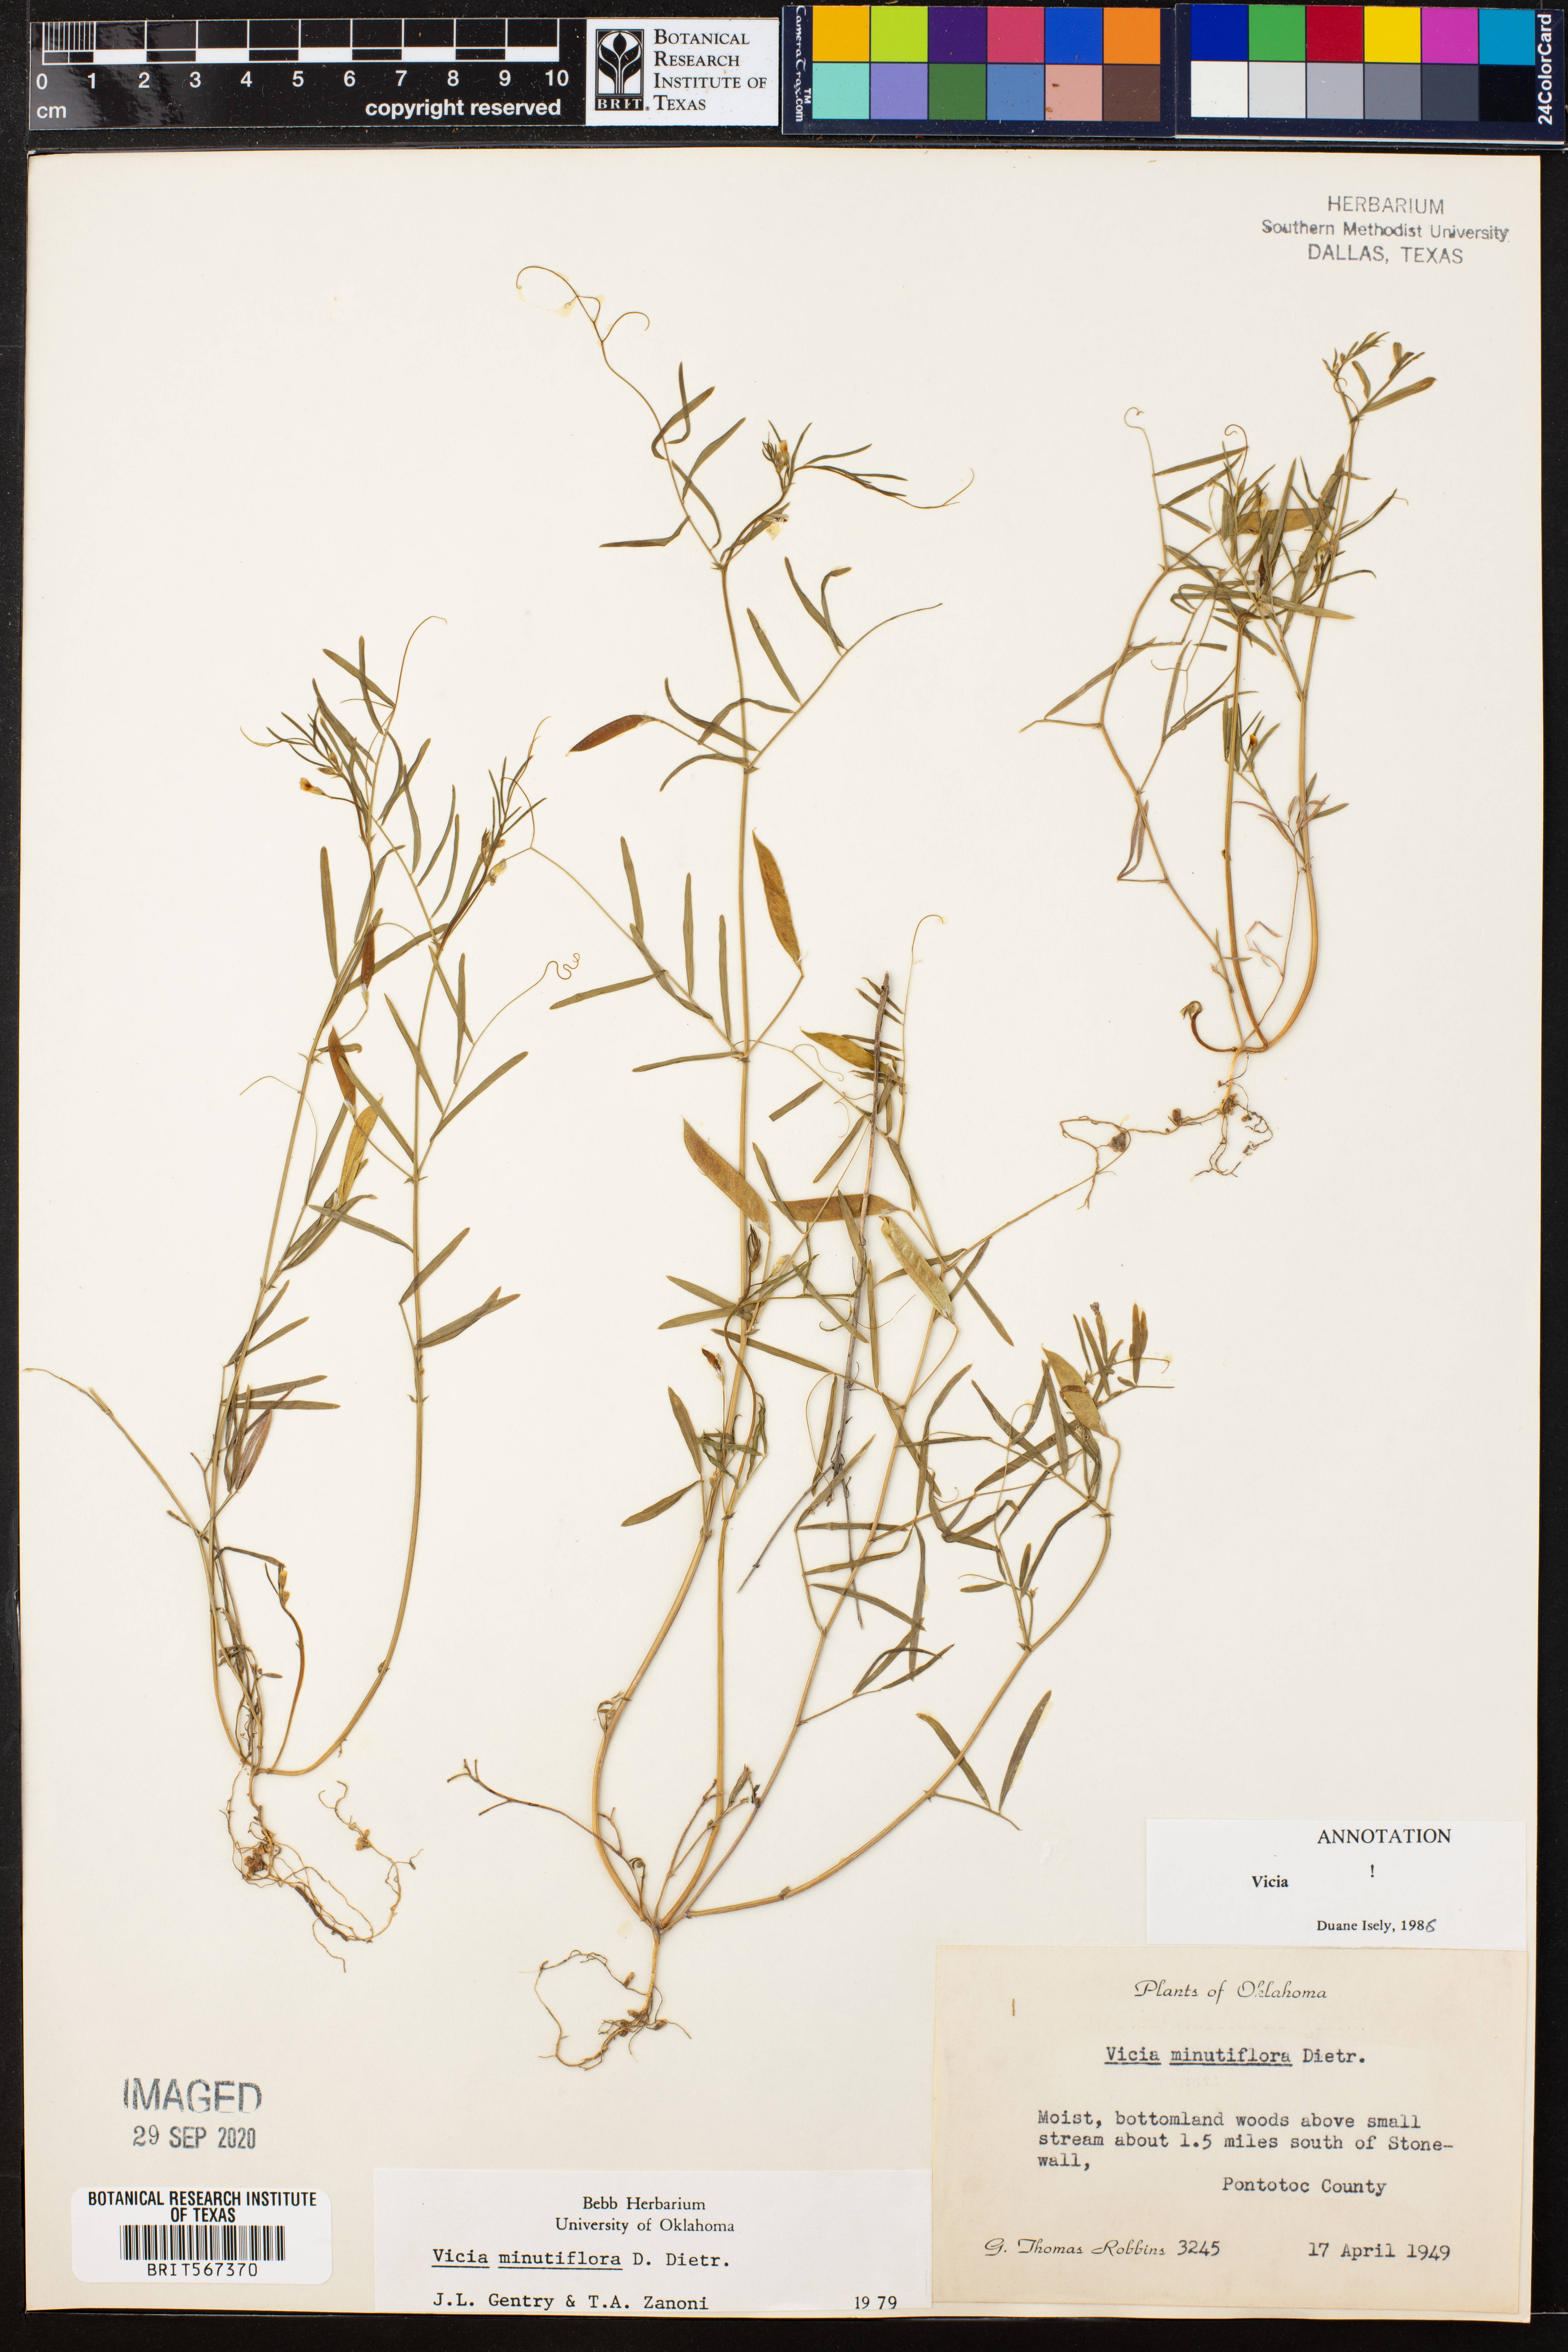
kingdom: Plantae
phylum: Tracheophyta
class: Magnoliopsida
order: Fabales
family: Fabaceae
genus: Vicia
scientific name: Vicia minutiflora
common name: Pygmy-flower vetch
